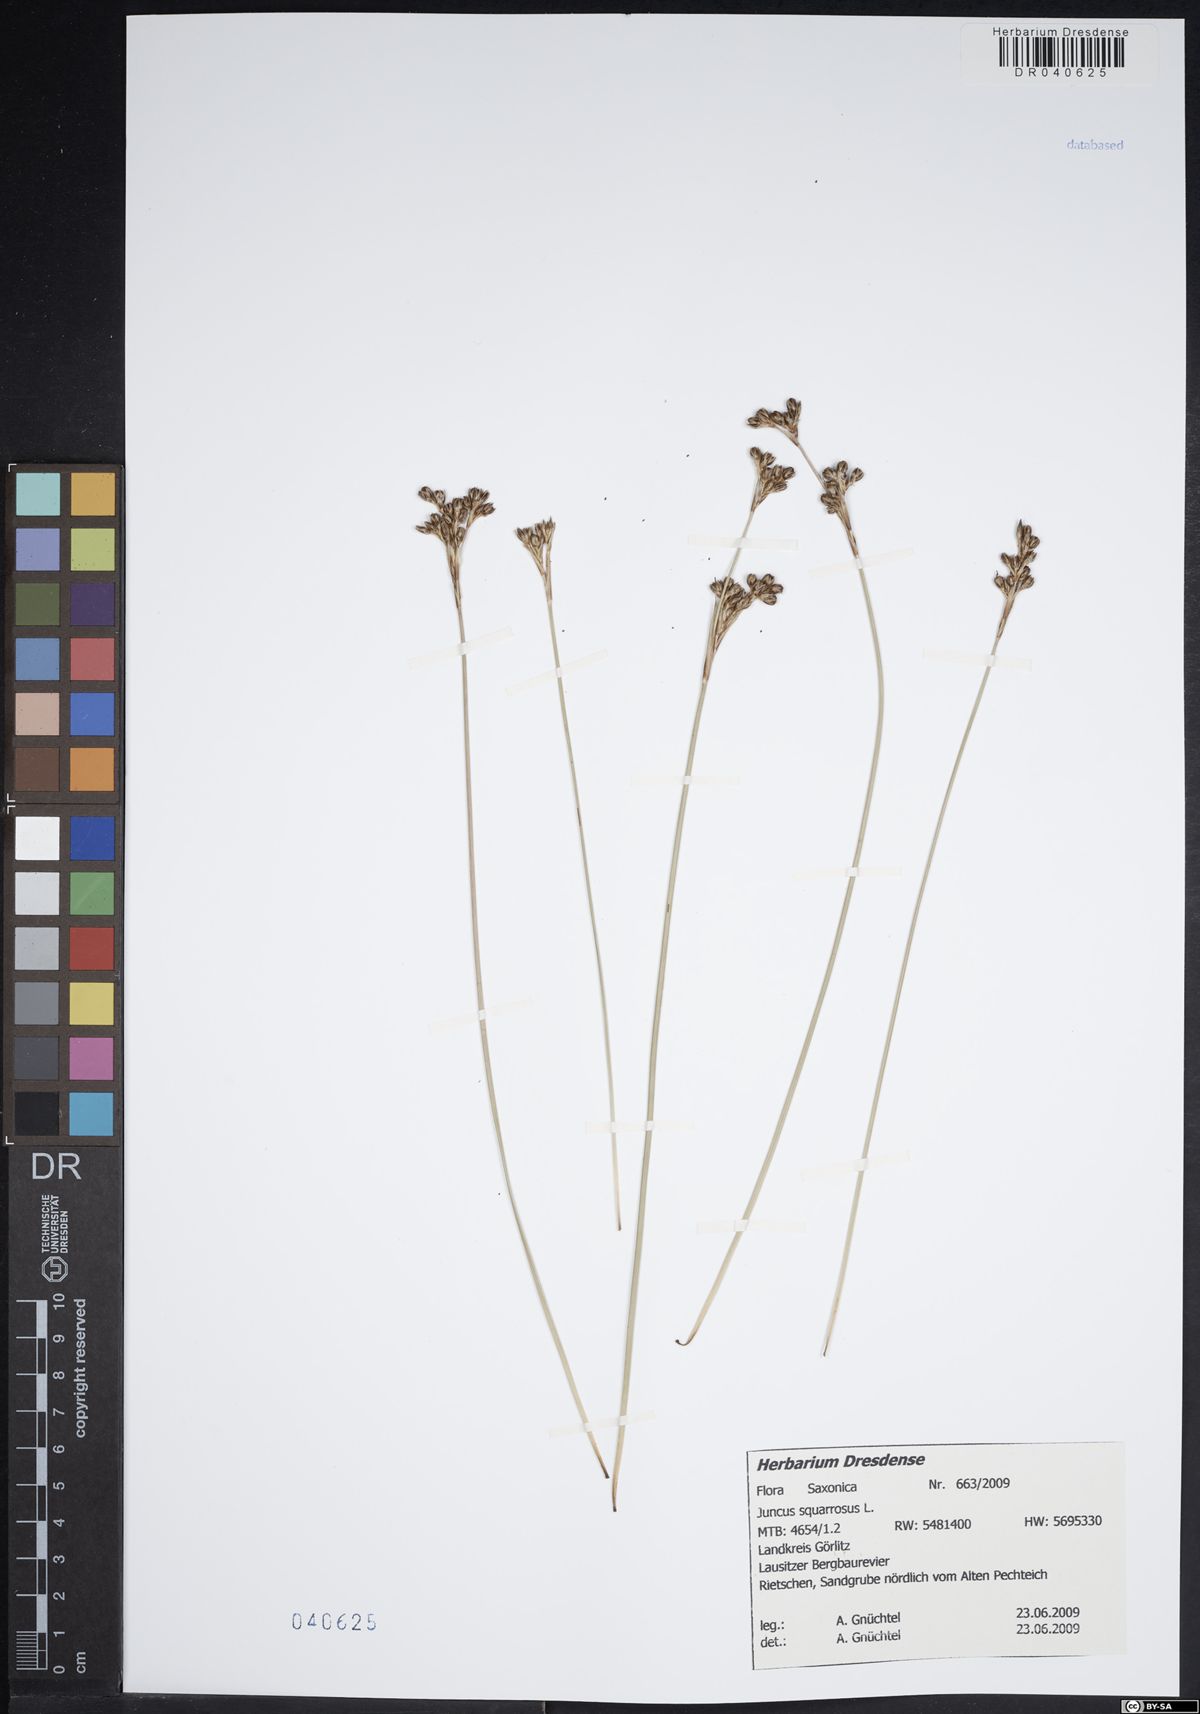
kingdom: Plantae
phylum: Tracheophyta
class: Liliopsida
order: Poales
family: Juncaceae
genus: Juncus
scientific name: Juncus squarrosus
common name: Heath rush
